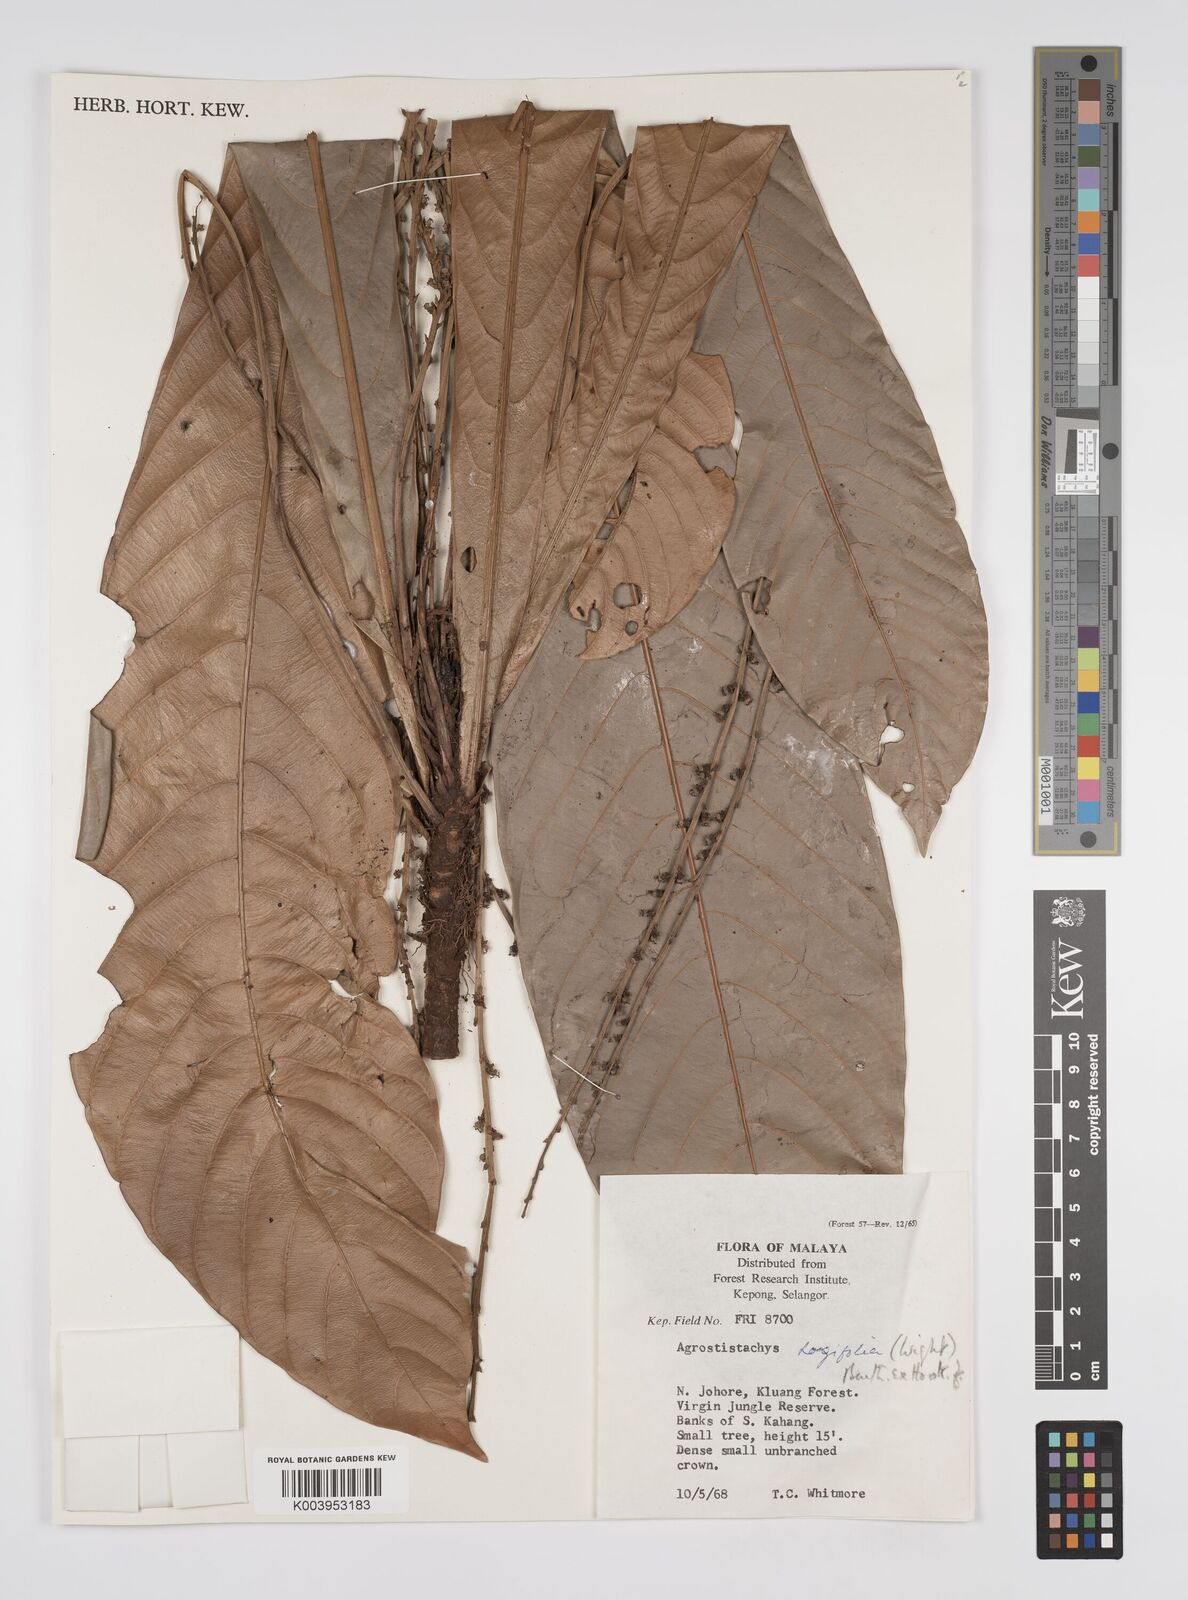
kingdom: Plantae
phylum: Tracheophyta
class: Magnoliopsida
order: Malpighiales
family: Euphorbiaceae
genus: Agrostistachys
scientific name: Agrostistachys borneensis
